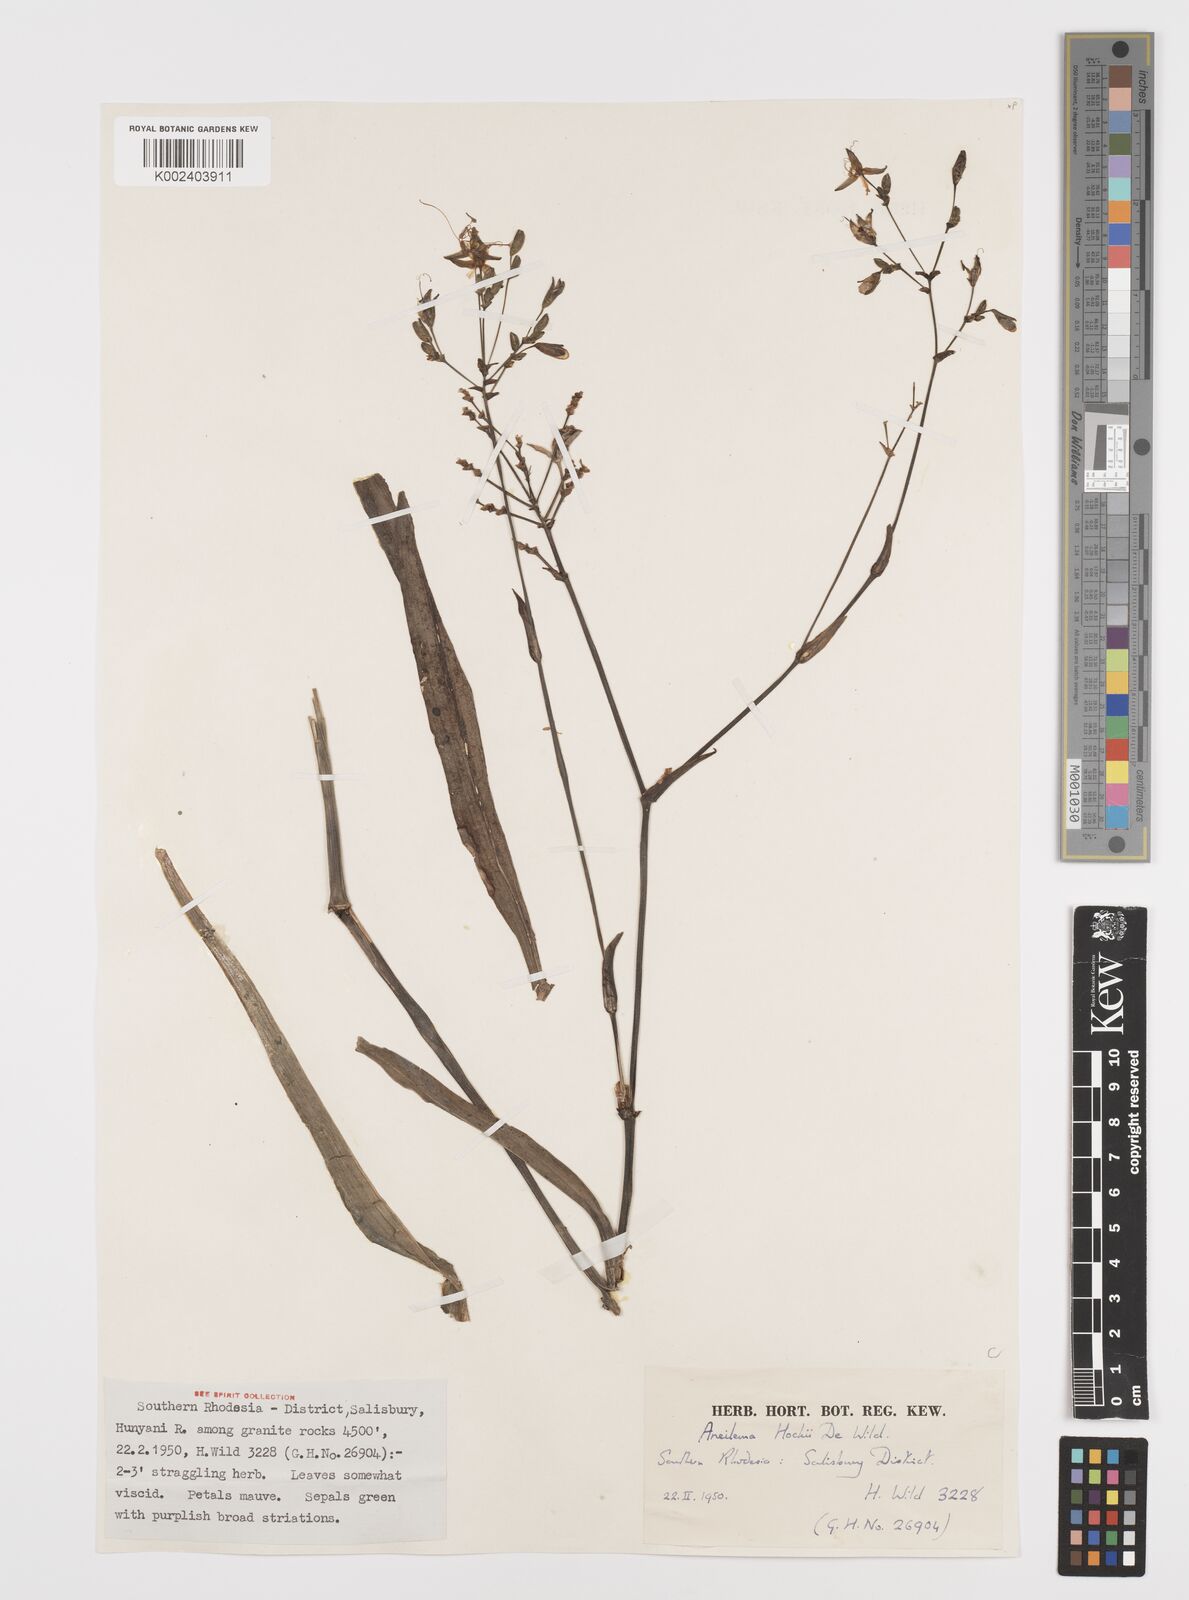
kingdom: Plantae
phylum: Tracheophyta
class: Liliopsida
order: Commelinales
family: Commelinaceae
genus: Aneilema
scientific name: Aneilema hockii
